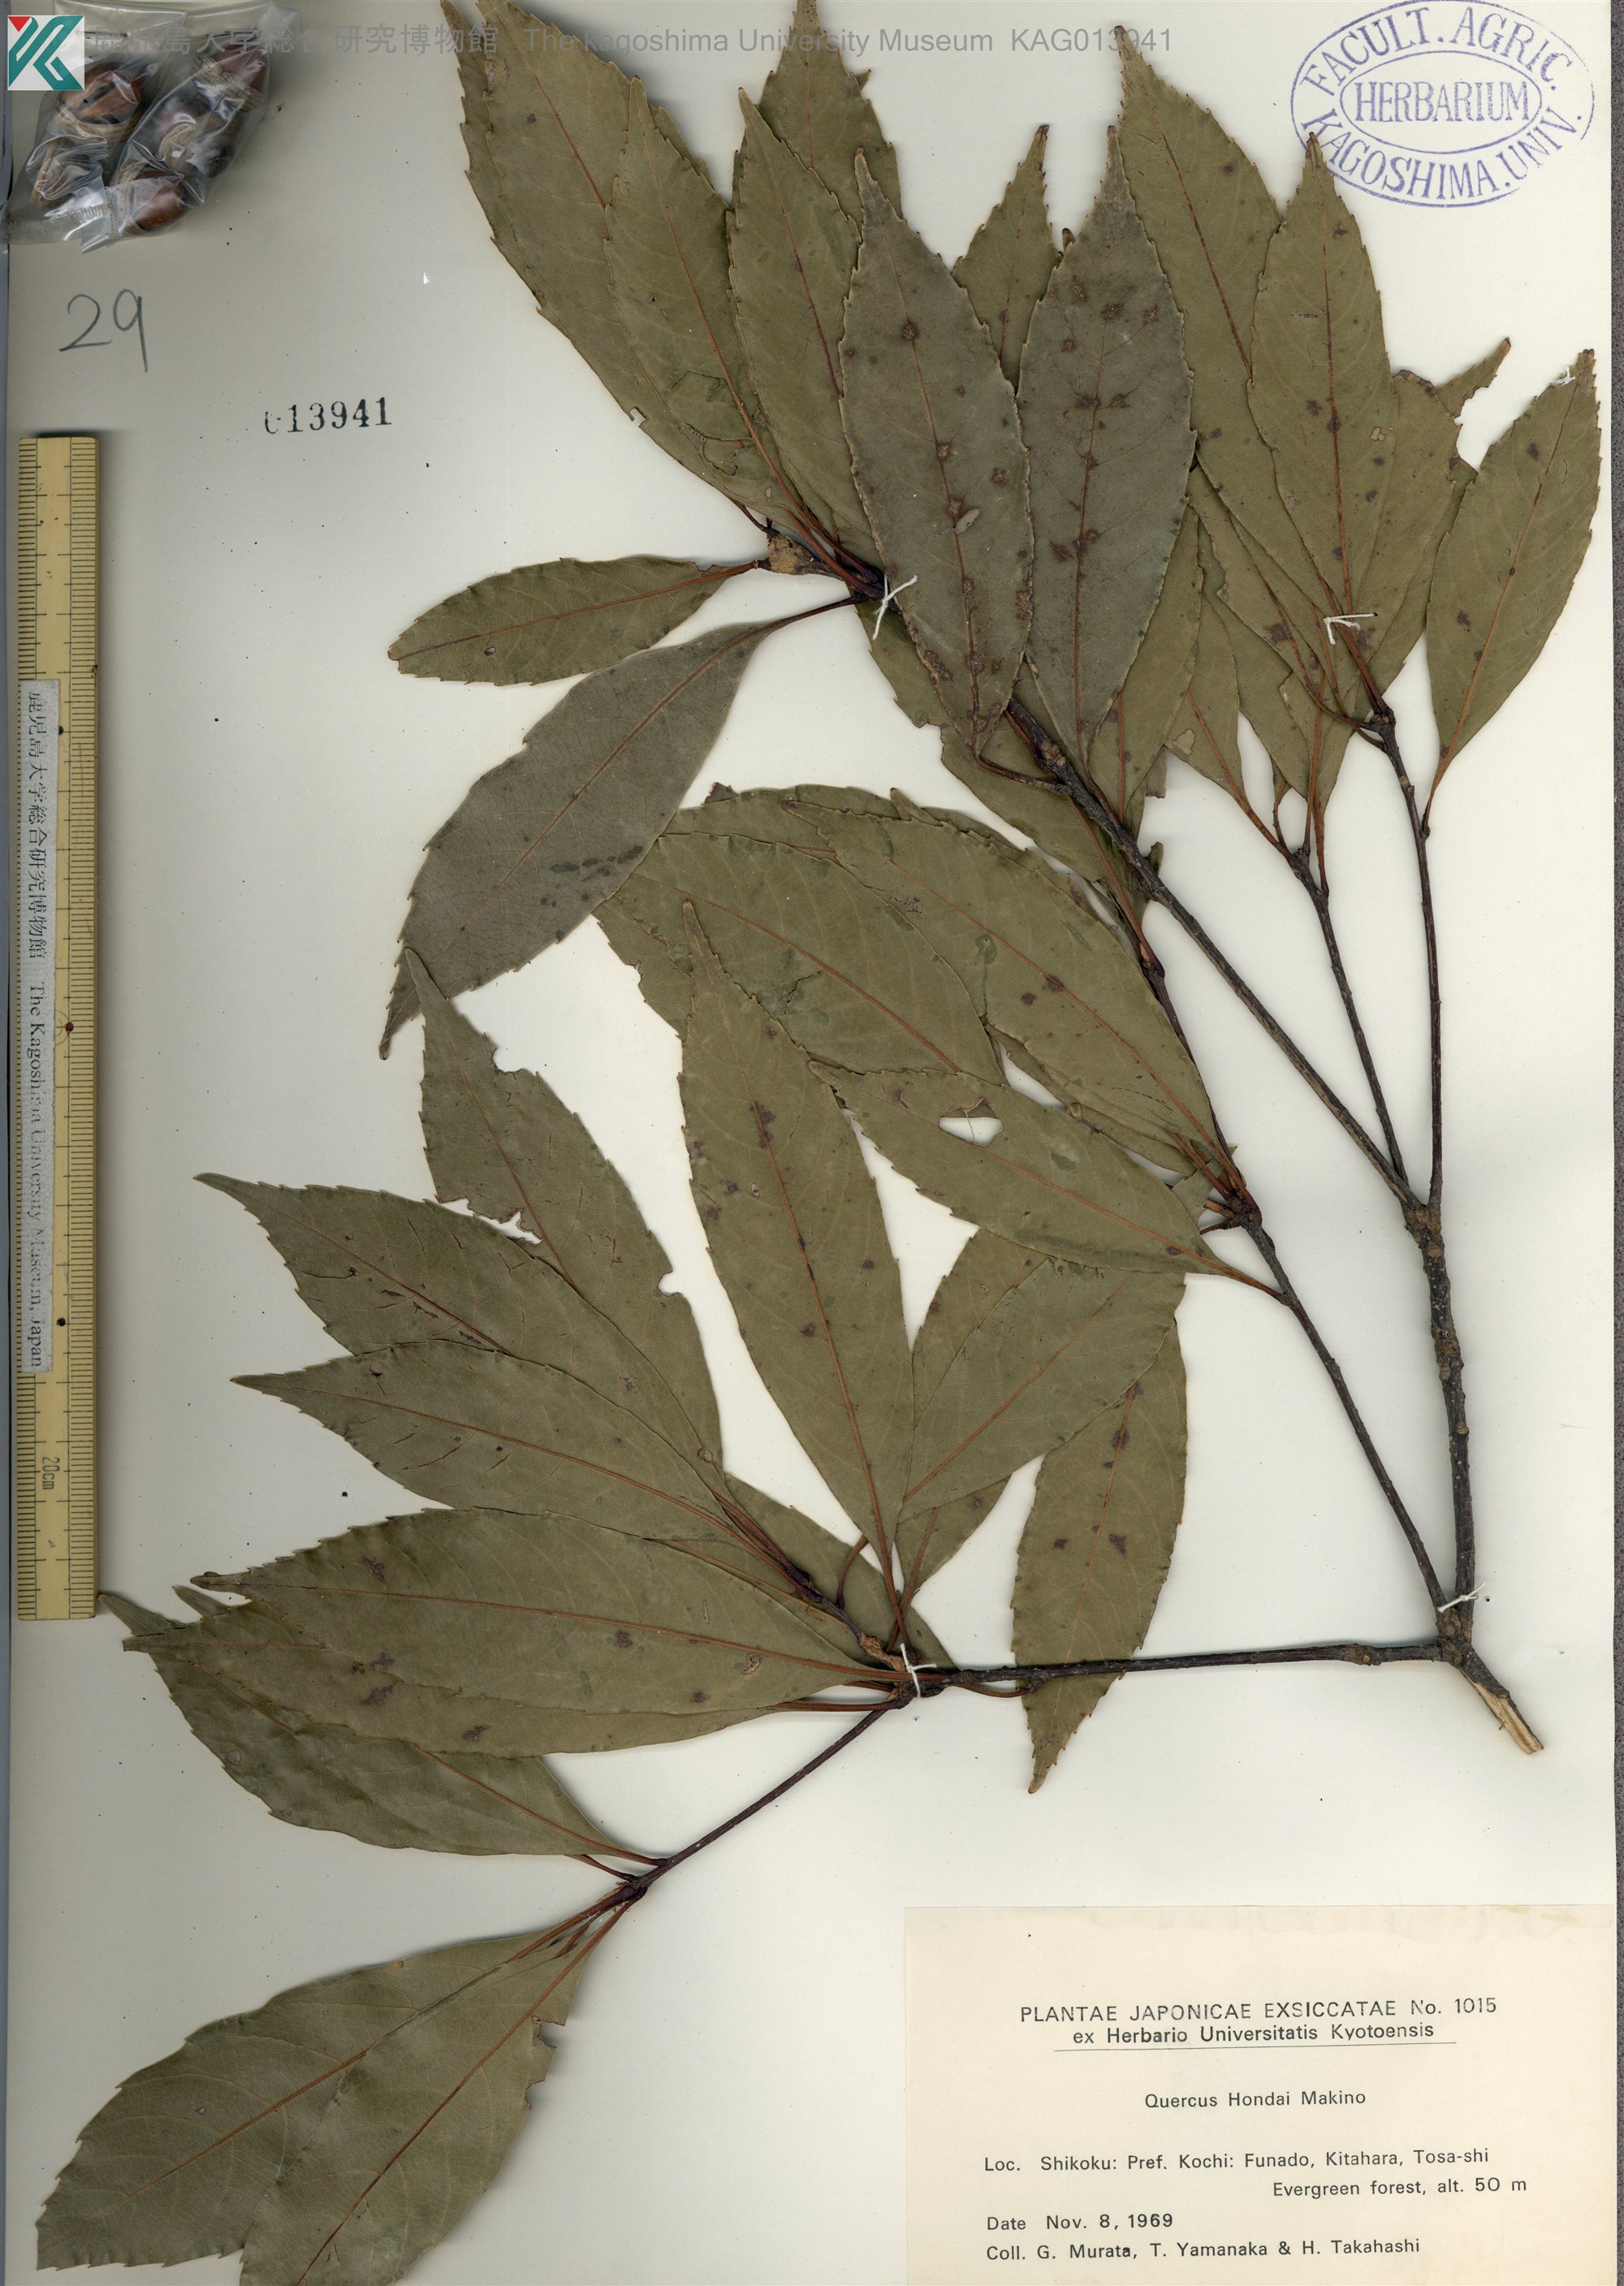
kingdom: Plantae
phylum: Tracheophyta
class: Magnoliopsida
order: Fagales
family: Fagaceae
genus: Quercus
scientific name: Quercus hondae
